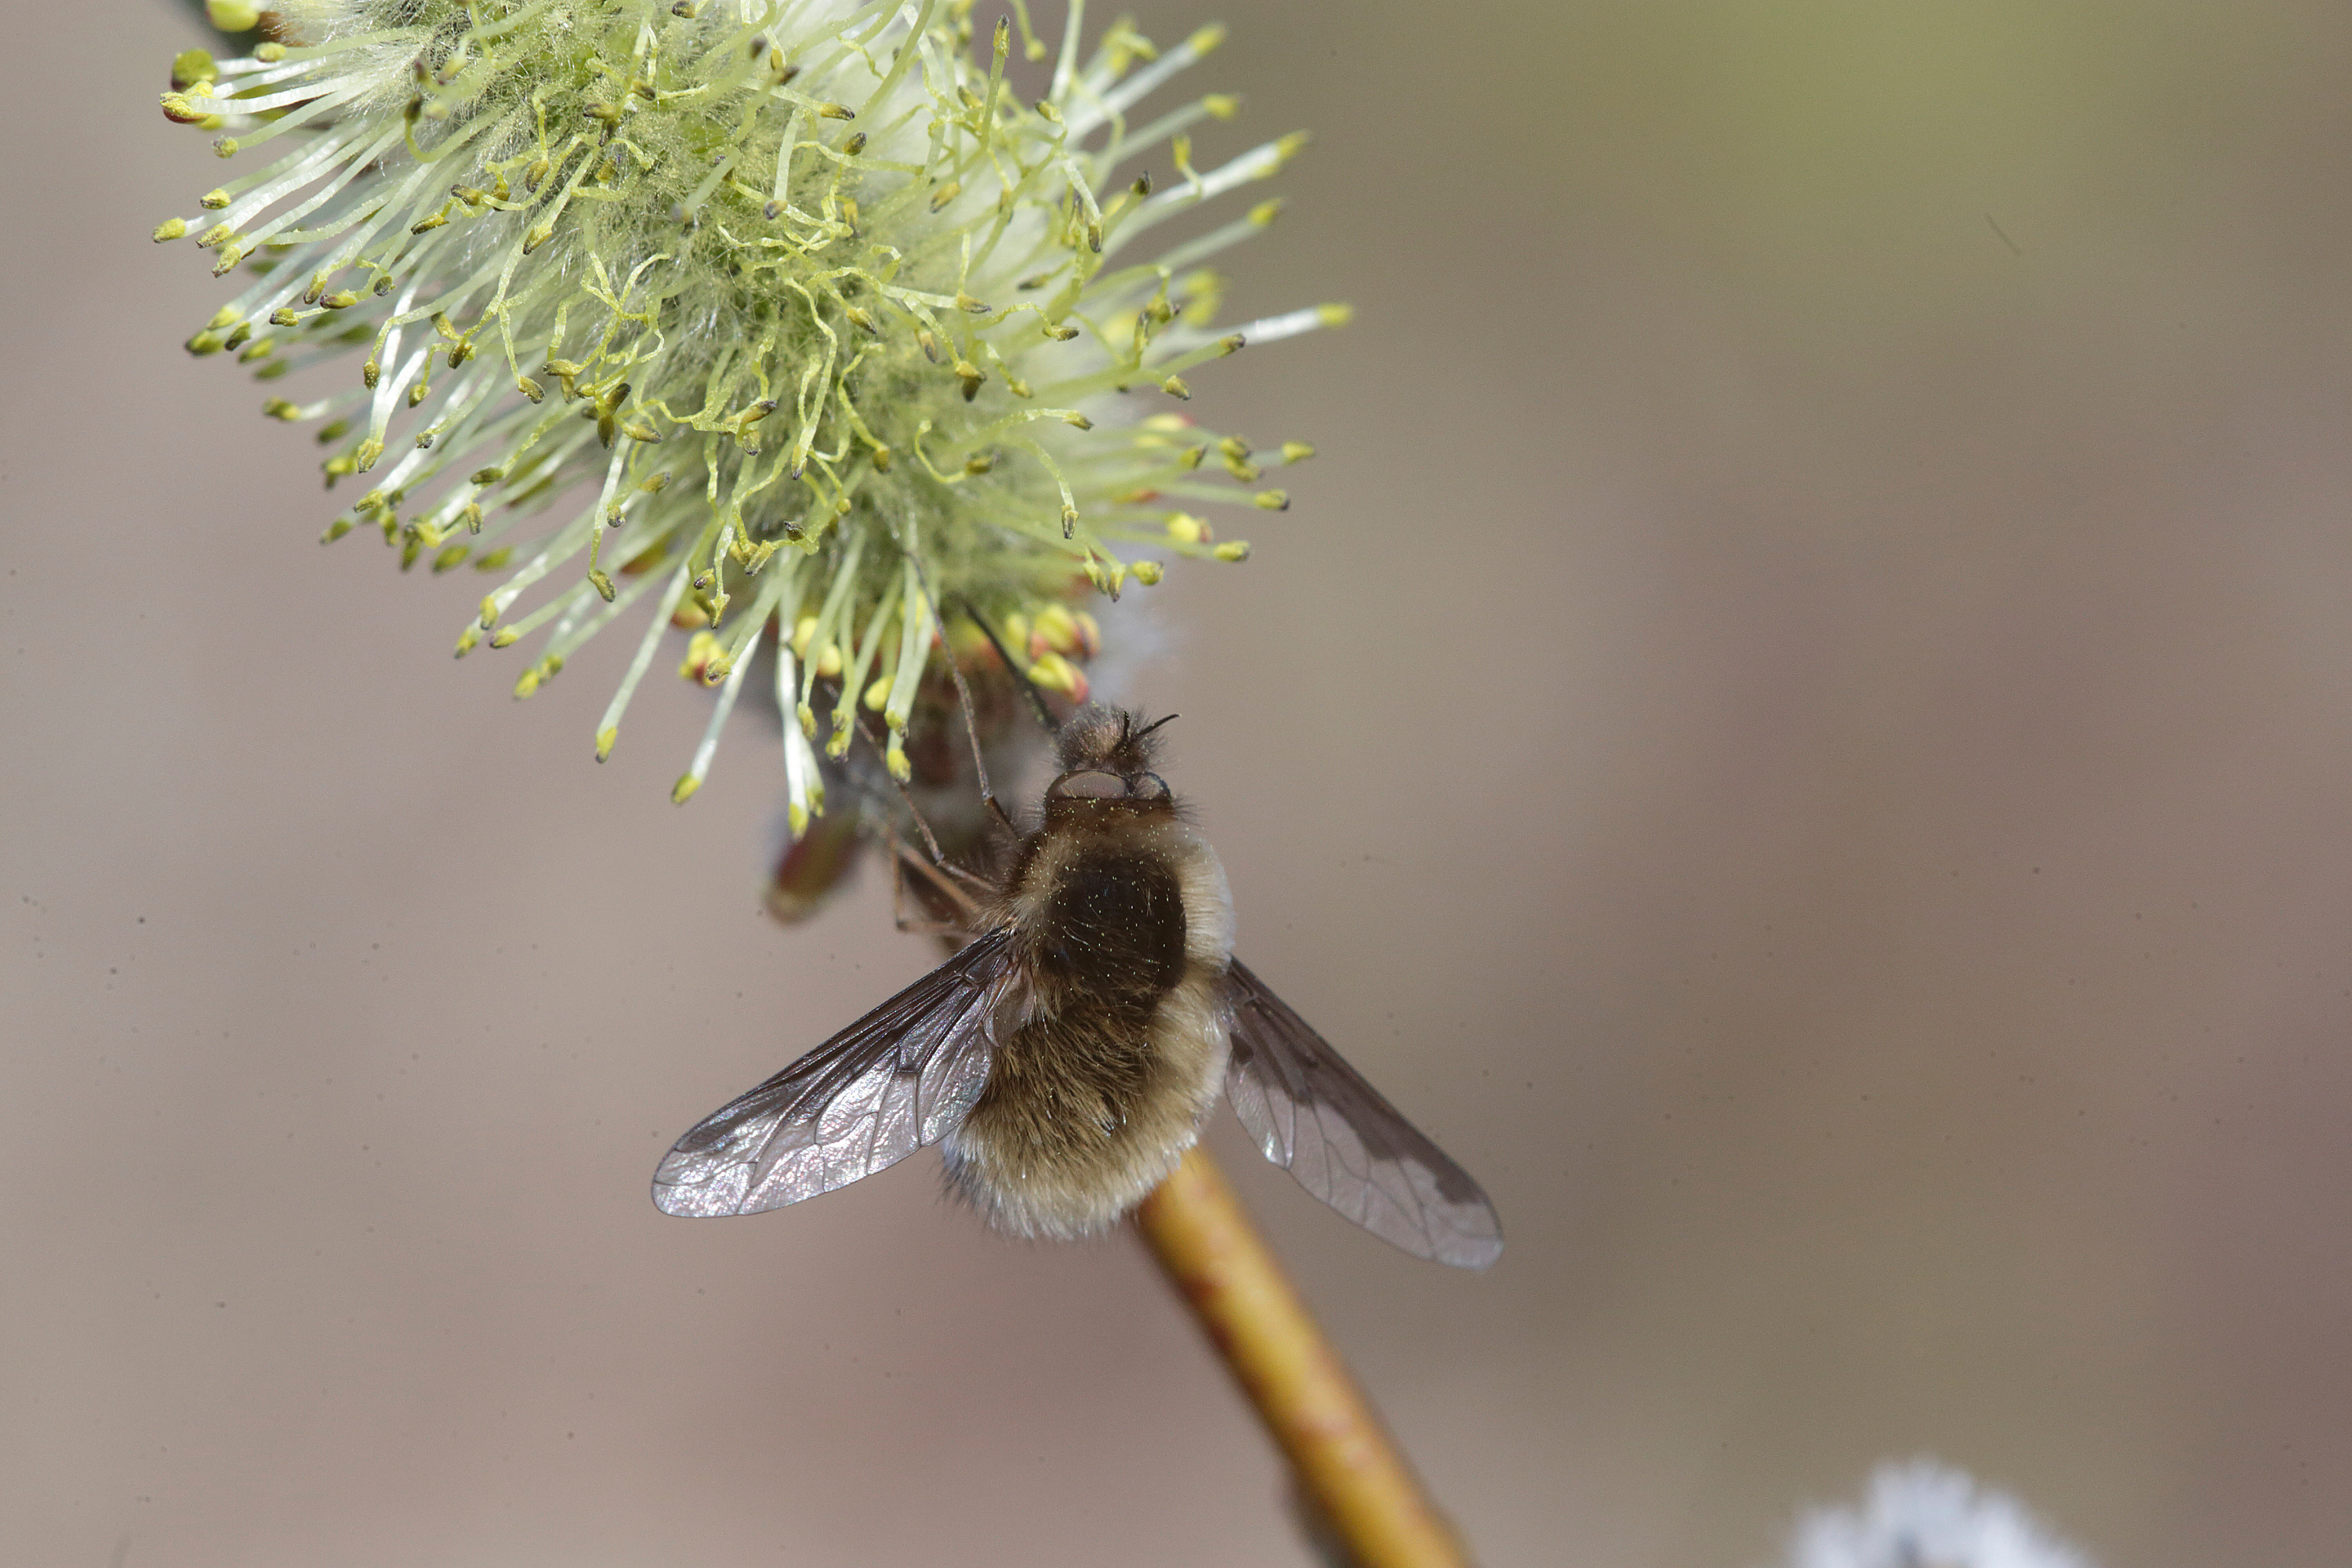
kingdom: Animalia
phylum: Arthropoda
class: Insecta
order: Diptera
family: Bombyliidae
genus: Bombylius
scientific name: Bombylius major
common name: Bee fly
